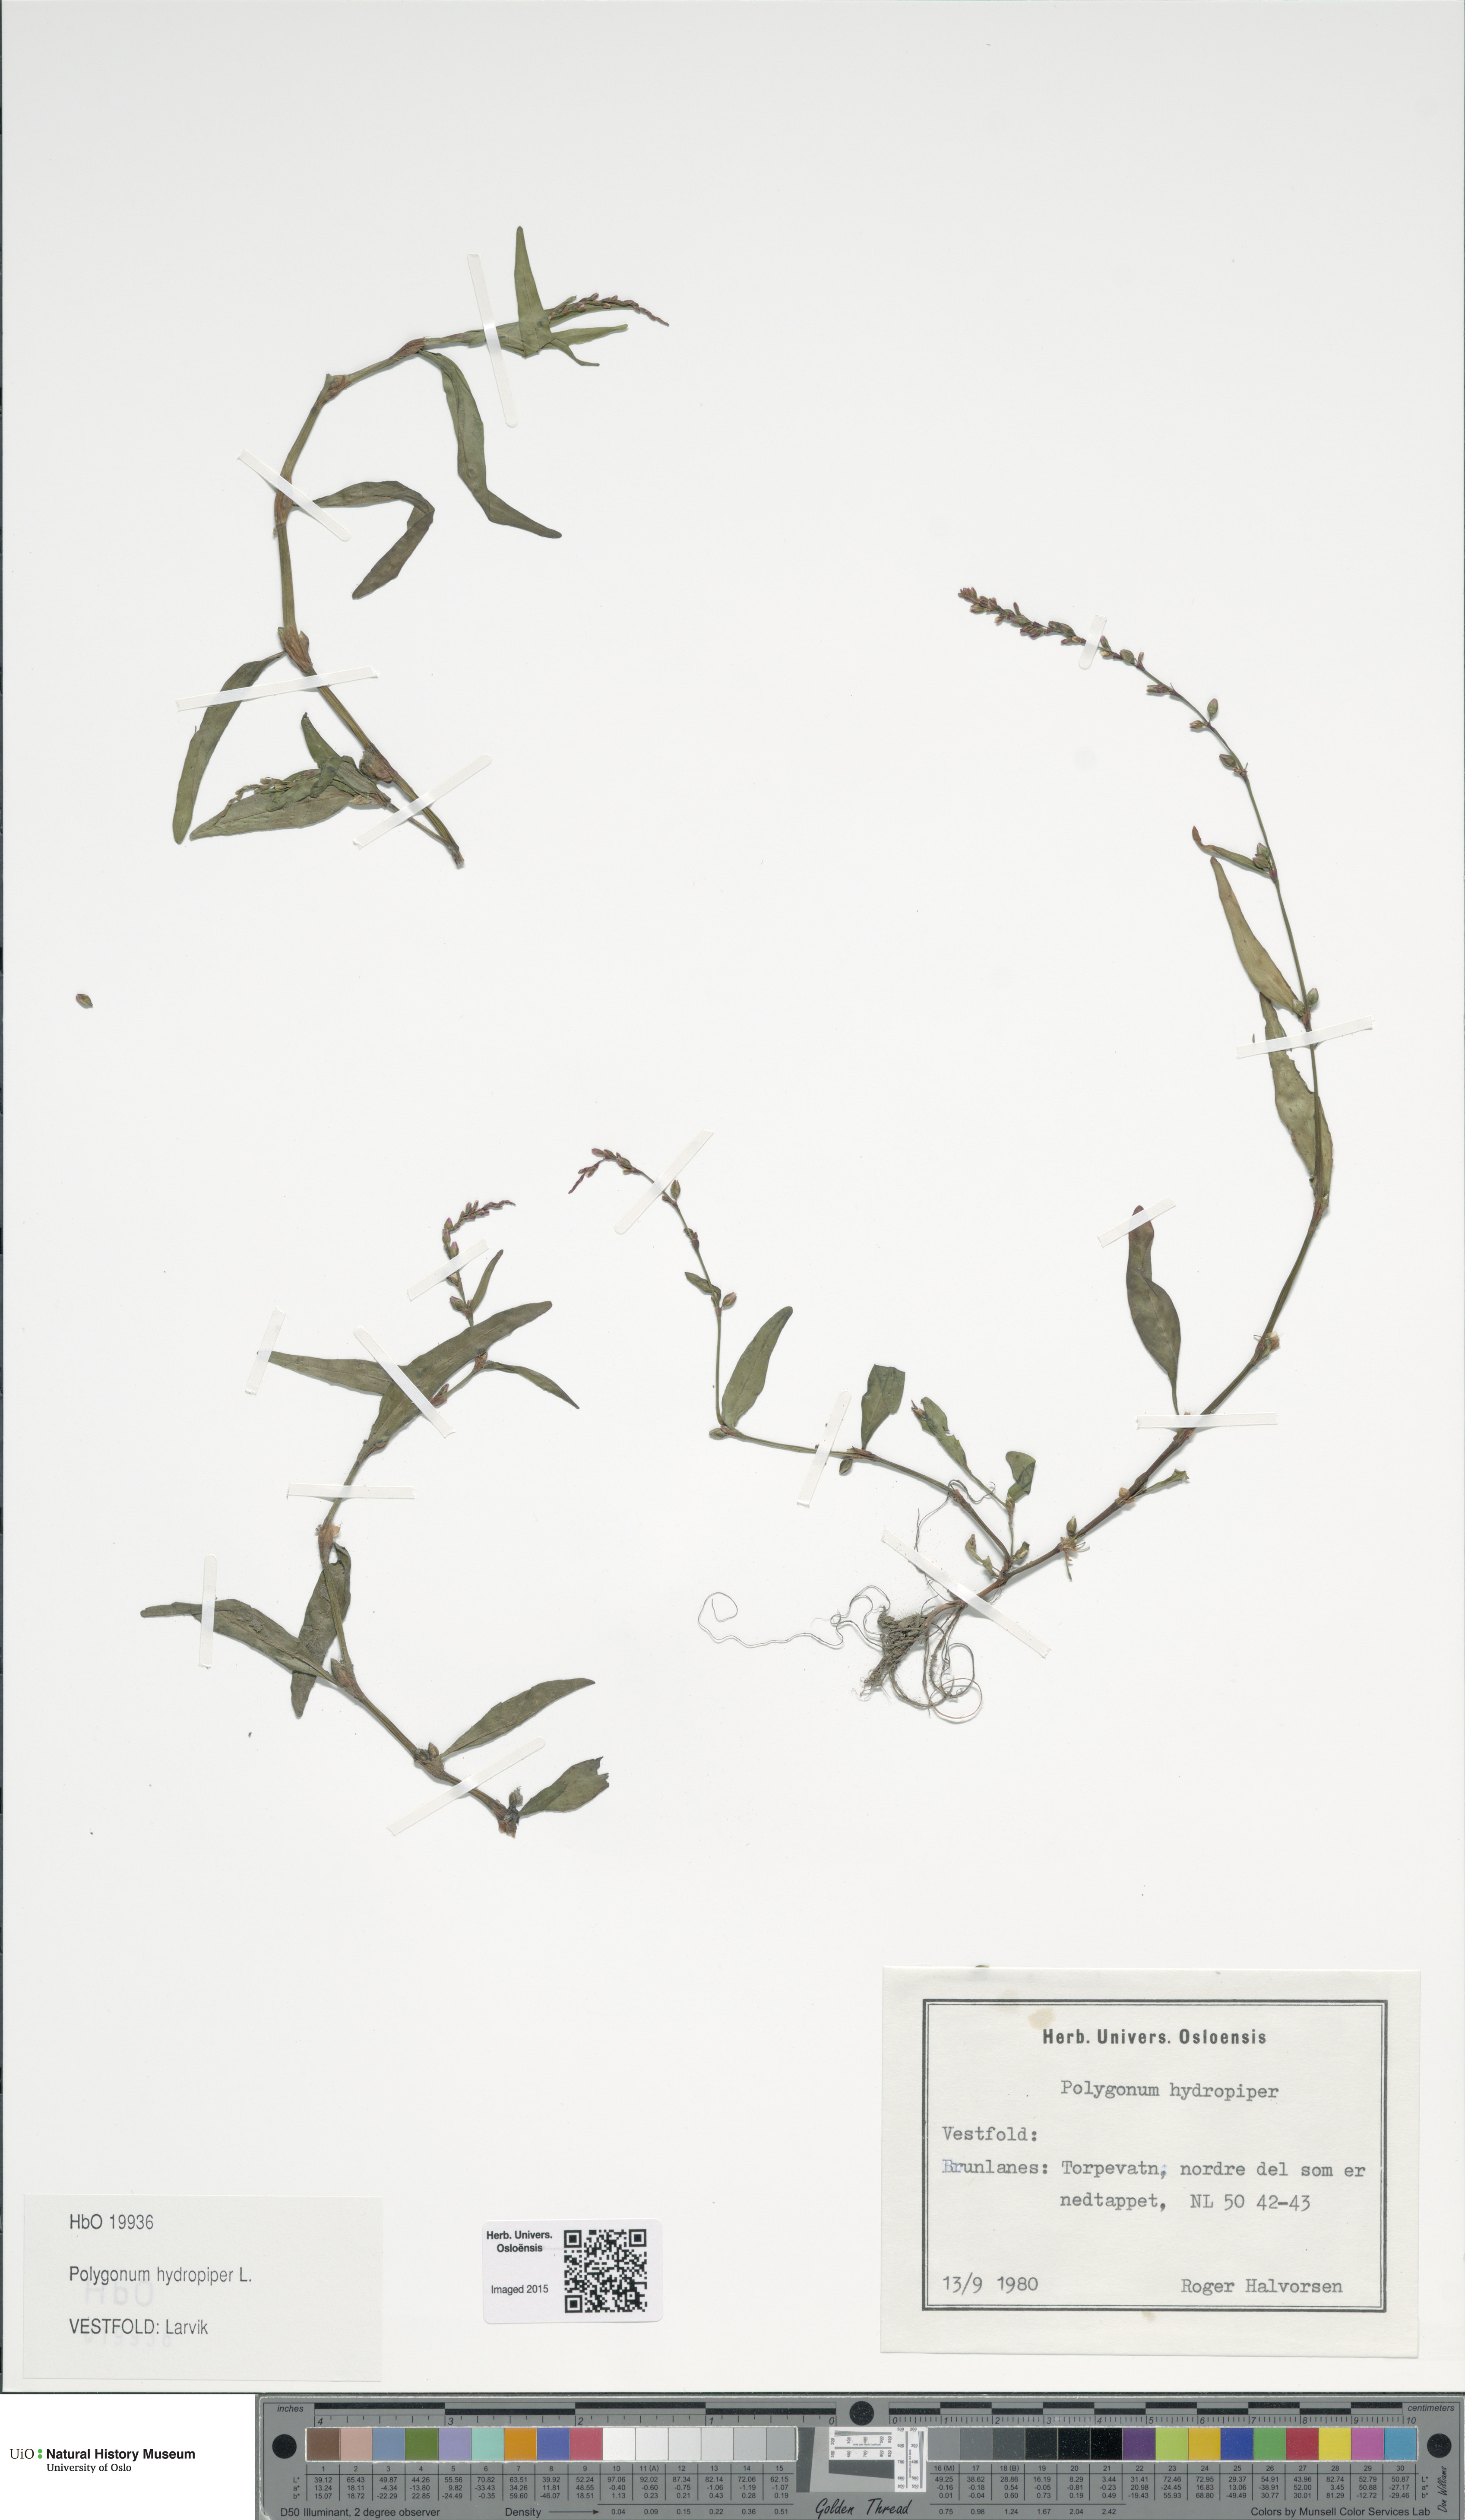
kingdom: Plantae
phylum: Tracheophyta
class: Magnoliopsida
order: Caryophyllales
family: Polygonaceae
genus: Persicaria
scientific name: Persicaria hydropiper
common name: Water-pepper
